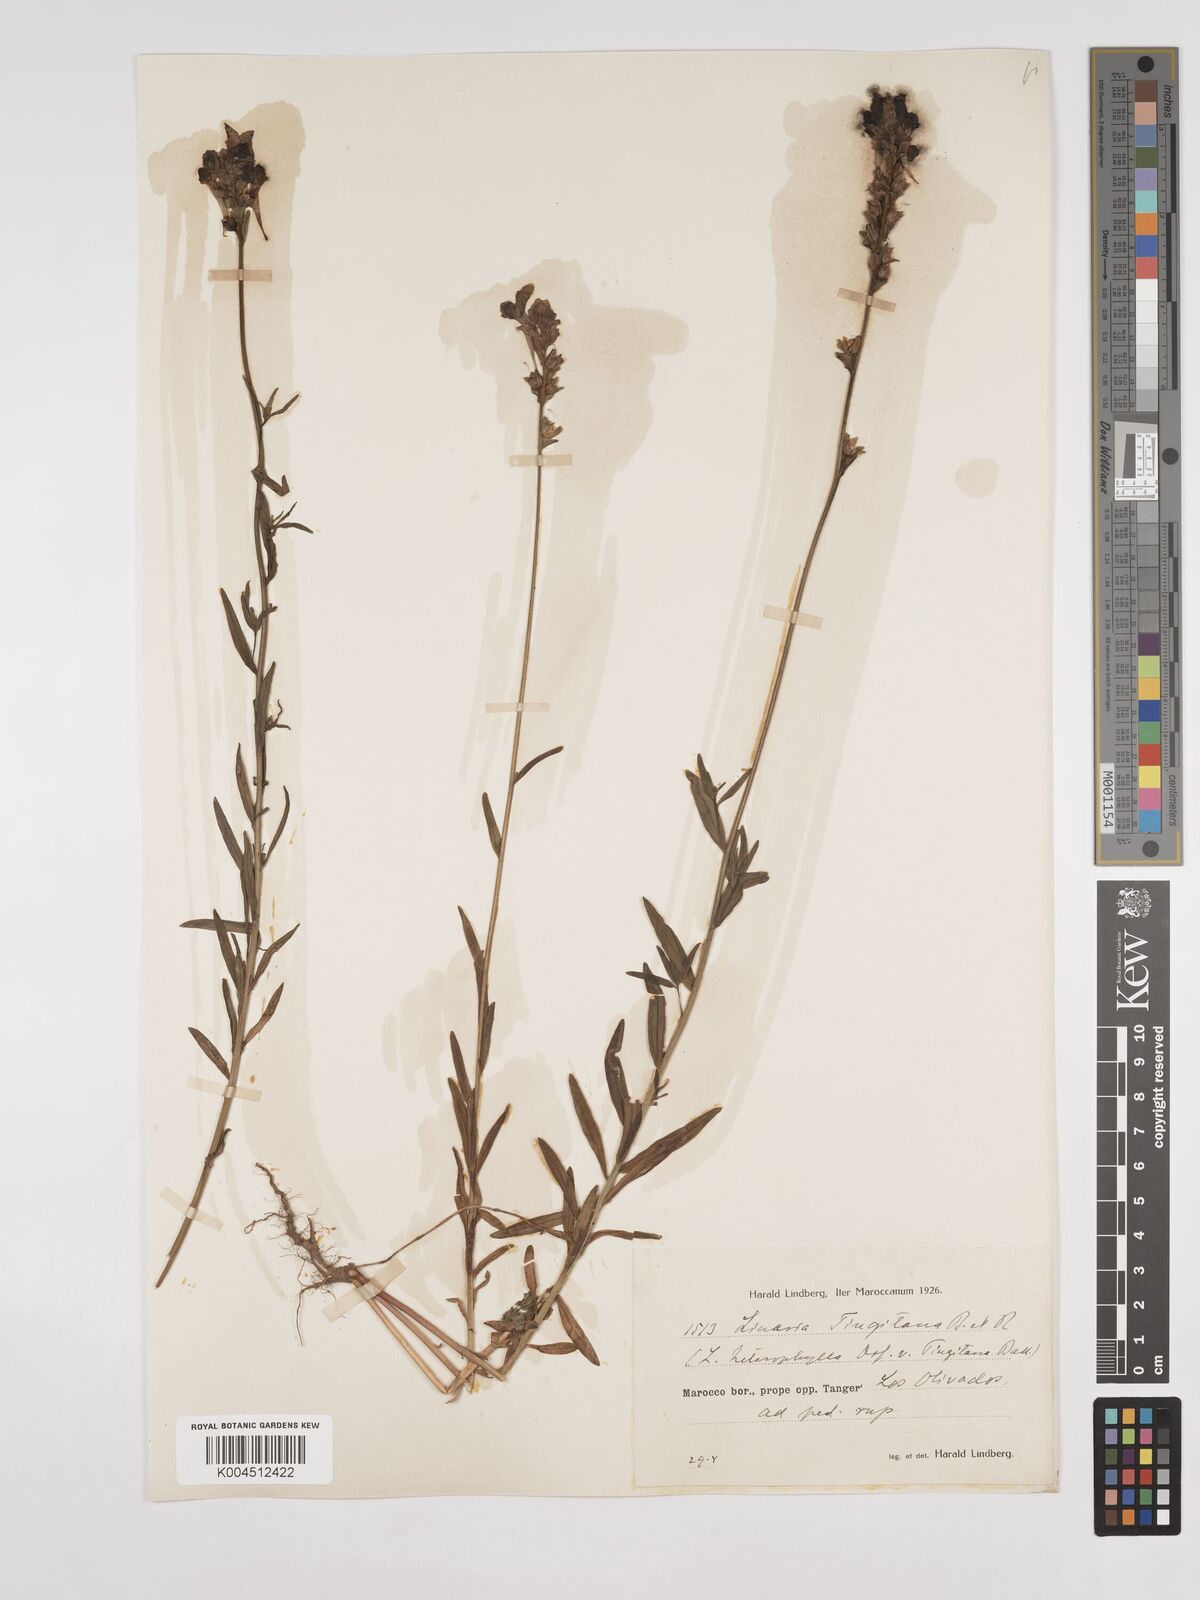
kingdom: Plantae
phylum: Tracheophyta
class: Magnoliopsida
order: Lamiales
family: Plantaginaceae
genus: Linaria
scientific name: Linaria multicaulis
